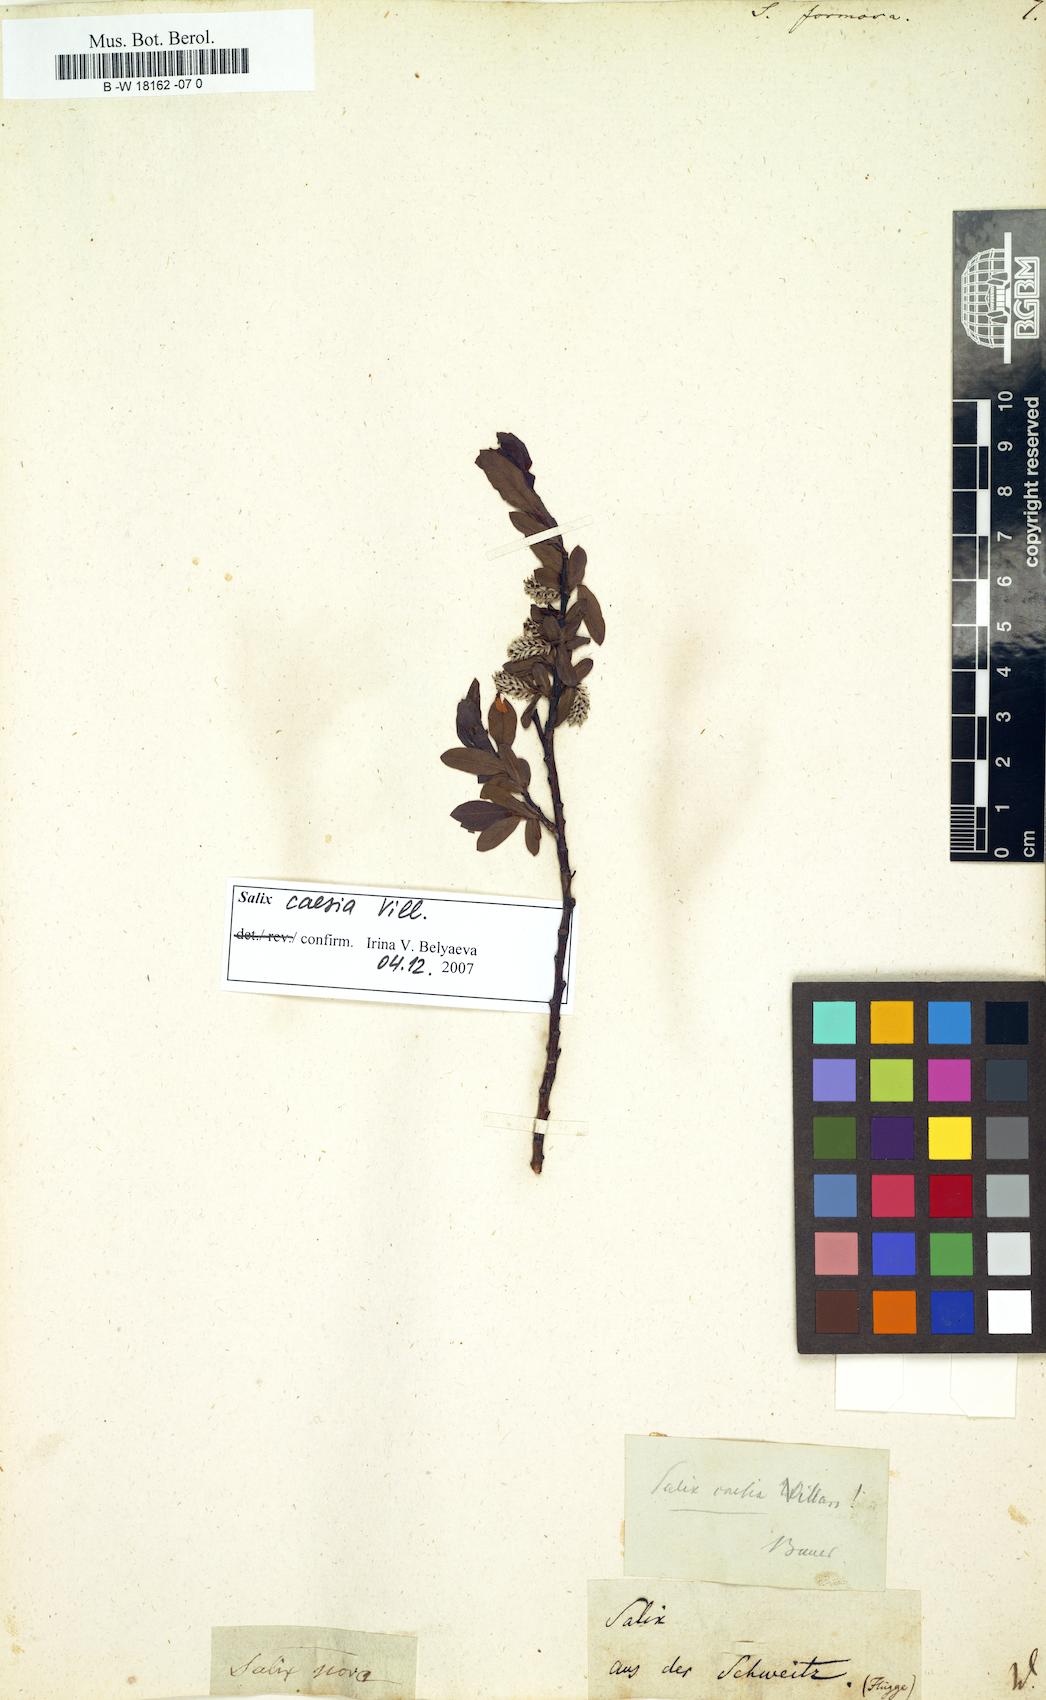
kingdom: Plantae
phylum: Tracheophyta
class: Magnoliopsida
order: Malpighiales
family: Salicaceae
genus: Salix
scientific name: Salix foetida
